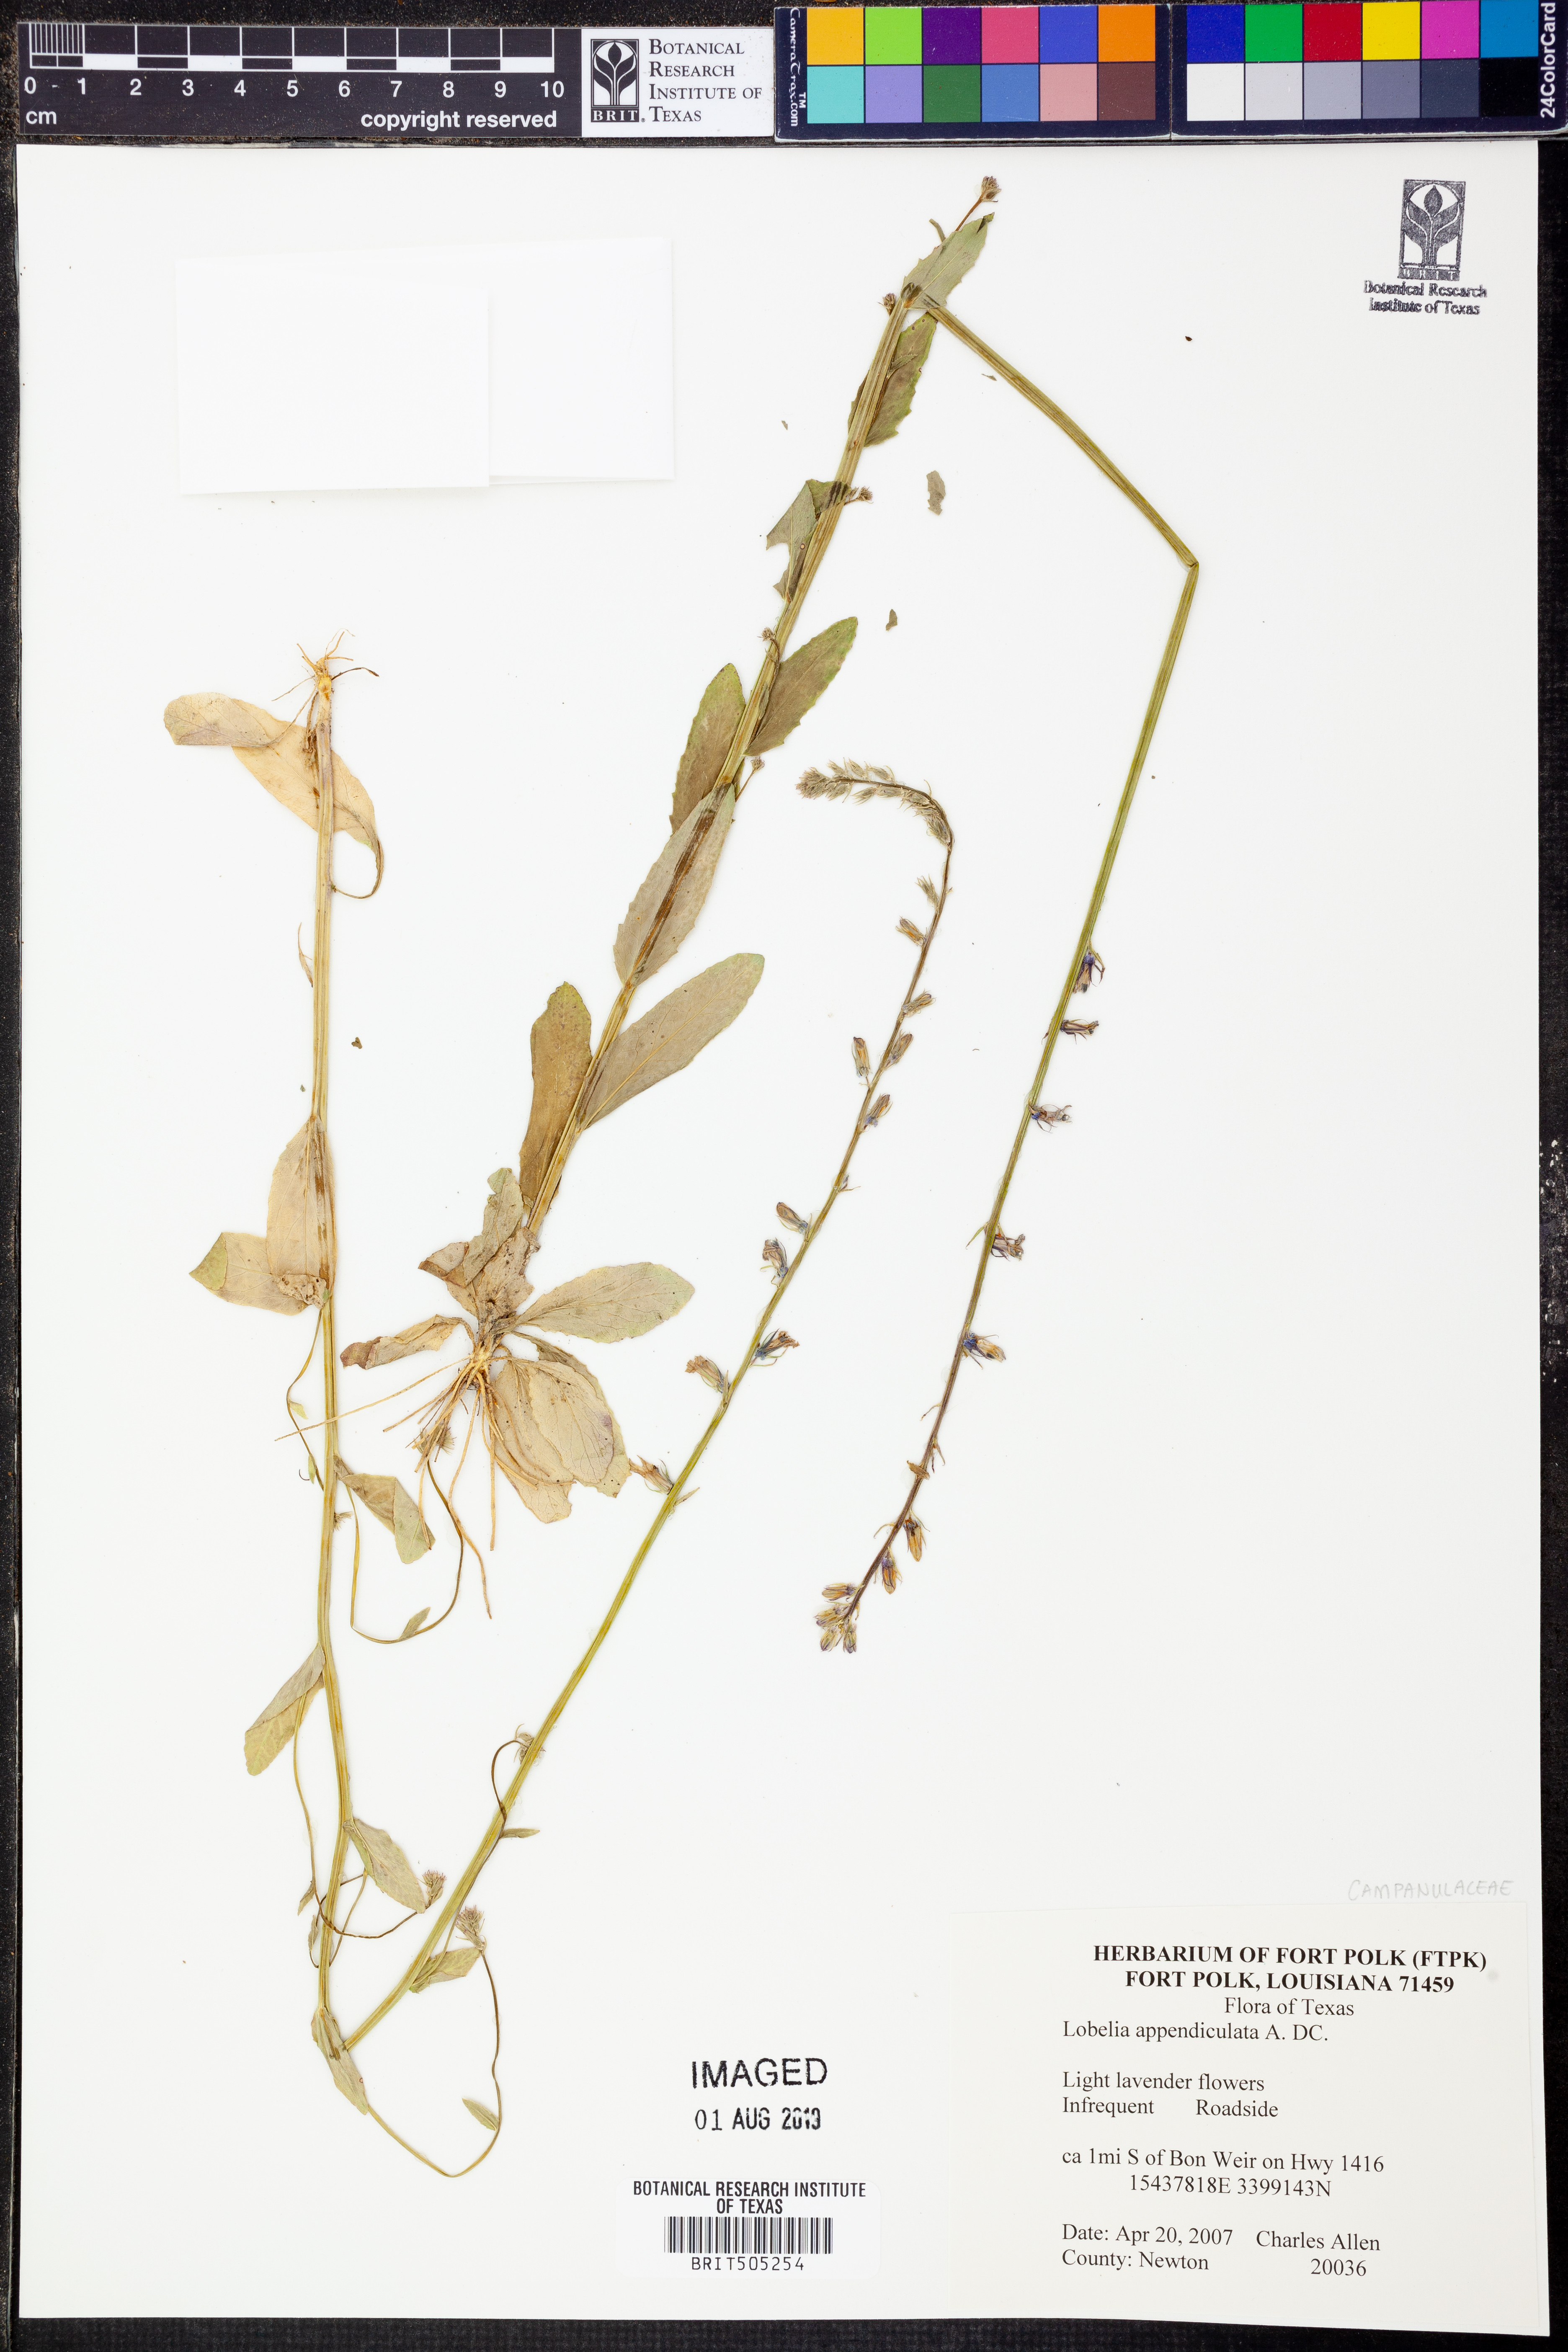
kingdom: Plantae
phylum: Tracheophyta
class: Magnoliopsida
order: Asterales
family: Campanulaceae
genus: Lobelia
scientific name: Lobelia appendiculata
